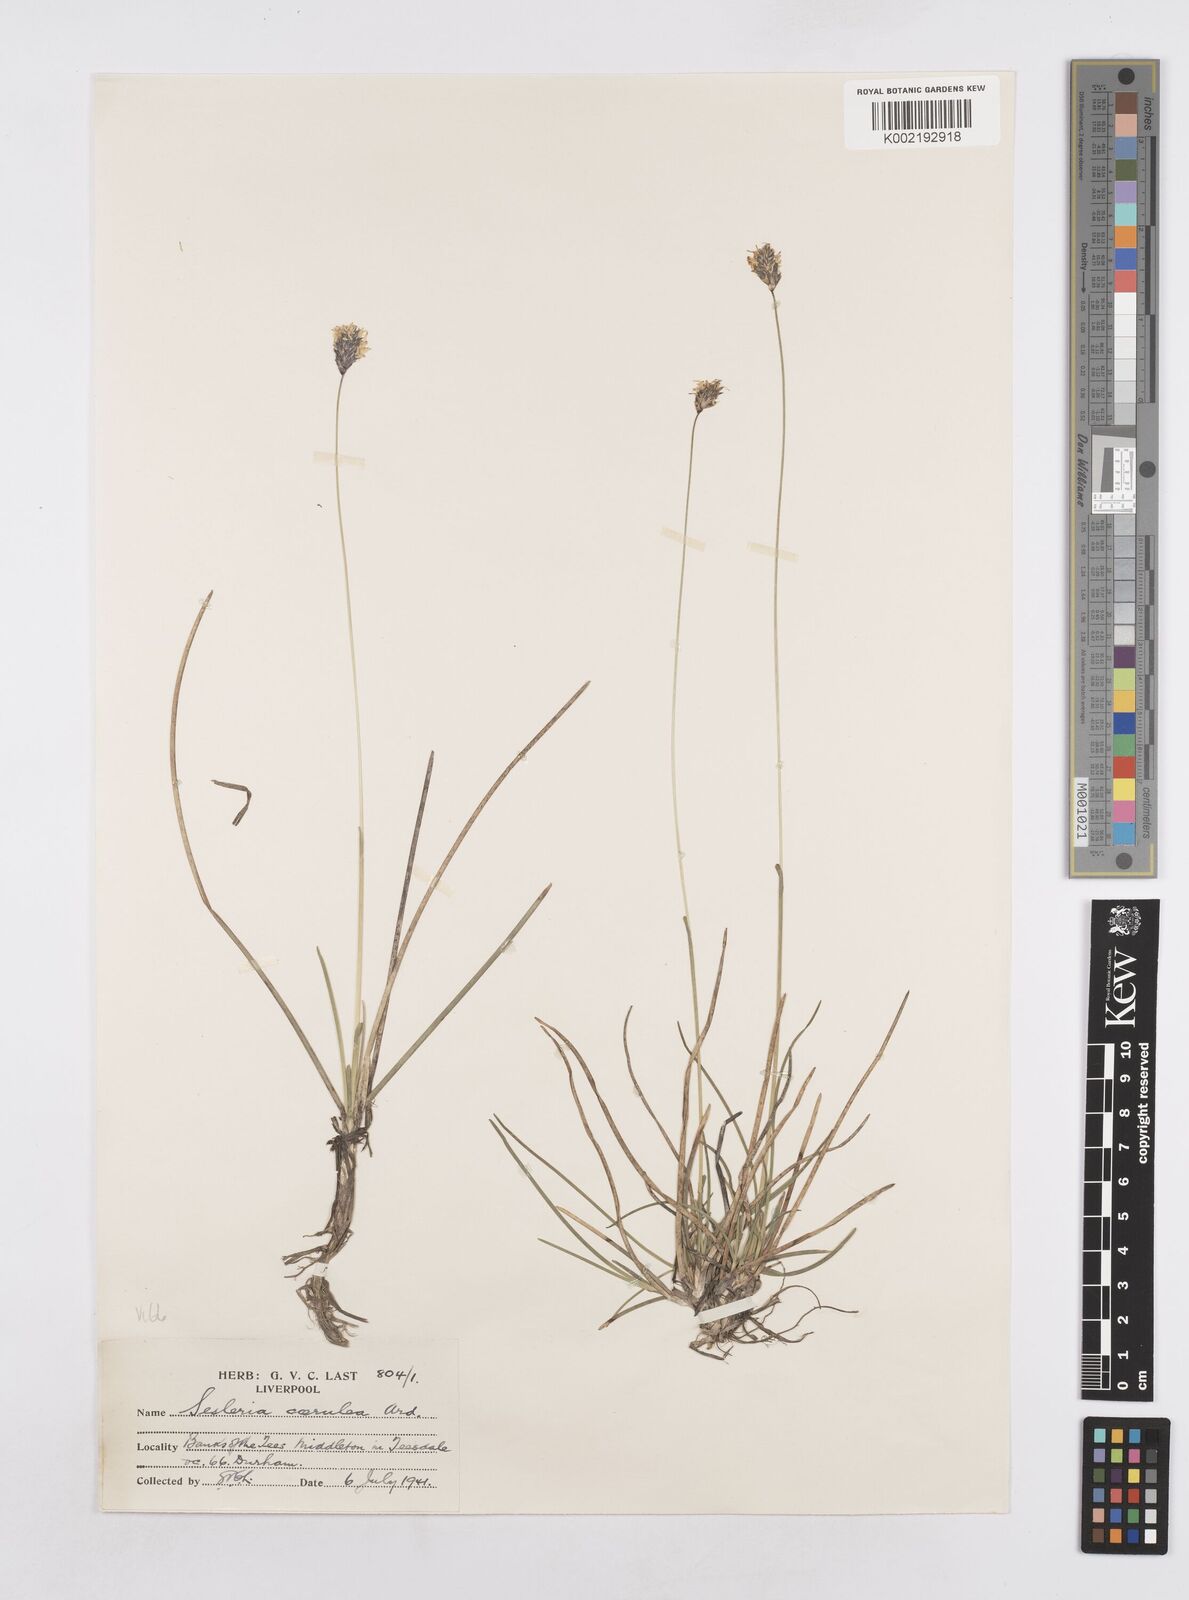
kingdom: Plantae
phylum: Tracheophyta
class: Liliopsida
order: Poales
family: Poaceae
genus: Sesleria
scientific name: Sesleria caerulea
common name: Blue moor-grass
